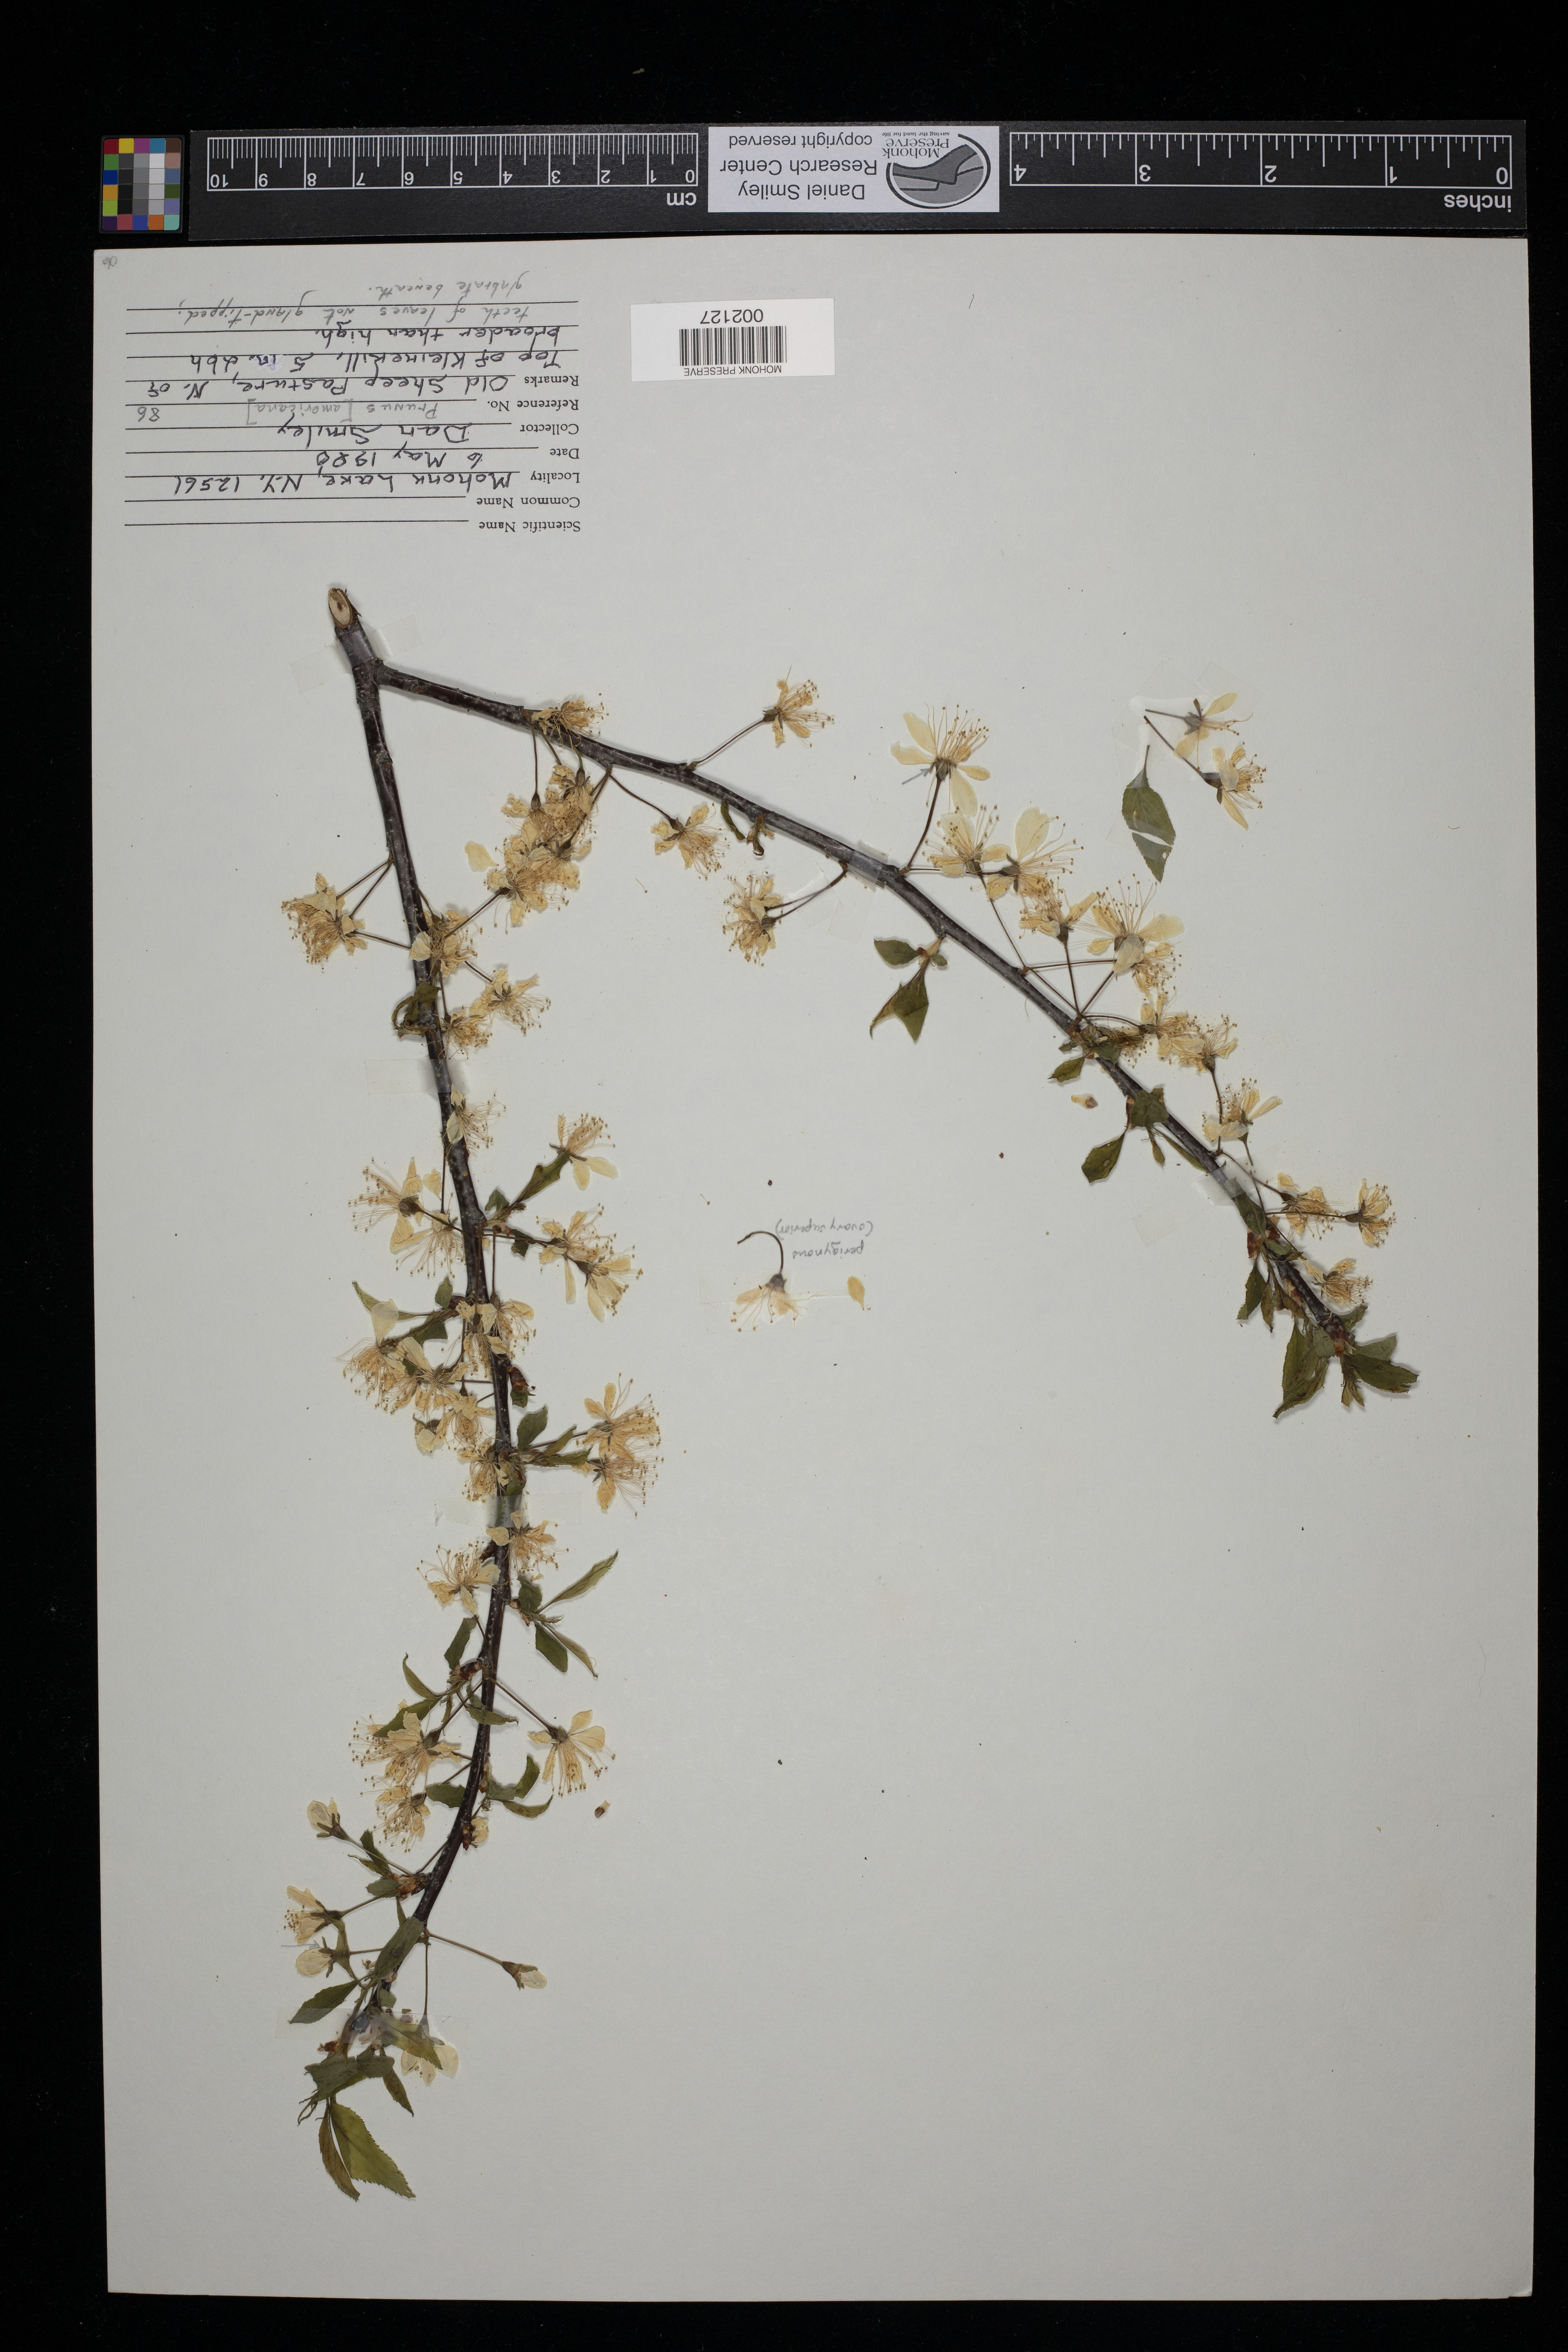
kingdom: Plantae
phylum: Tracheophyta
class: Magnoliopsida
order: Rosales
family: Rosaceae
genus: Prunus
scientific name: Prunus americana
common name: American plum
